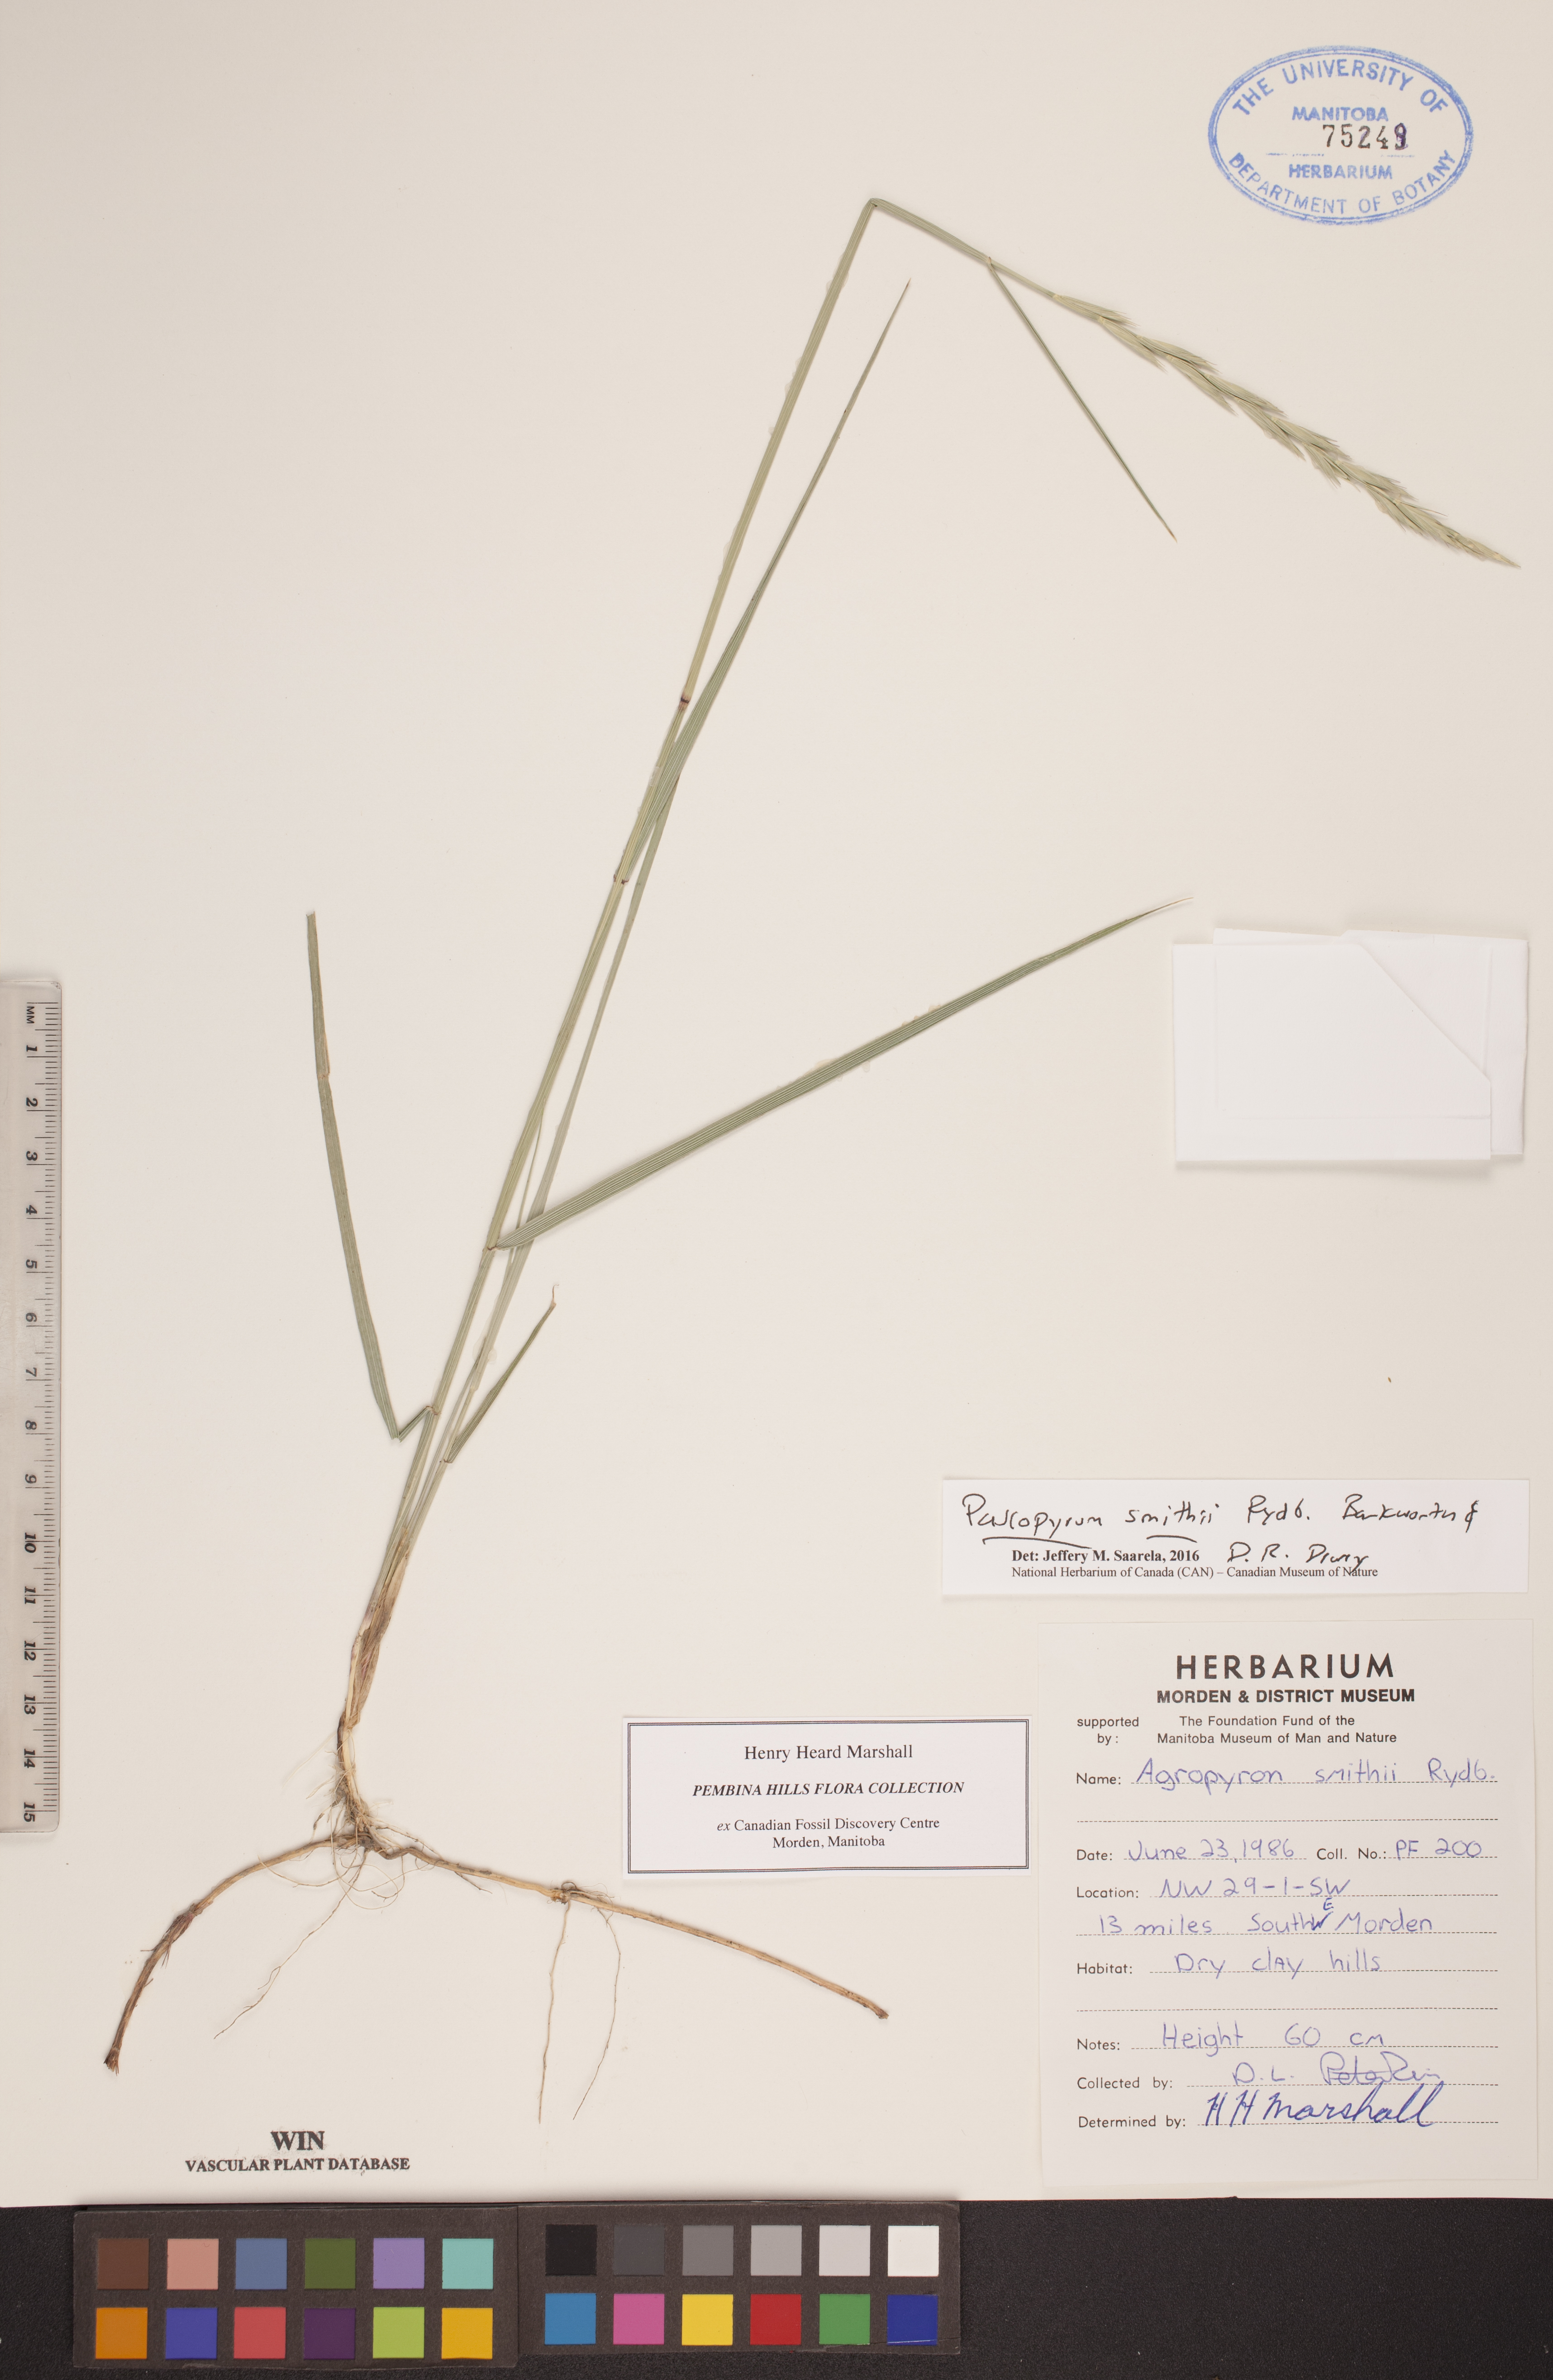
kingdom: Plantae
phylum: Tracheophyta
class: Liliopsida
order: Poales
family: Poaceae
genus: Elymus
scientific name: Elymus smithii
